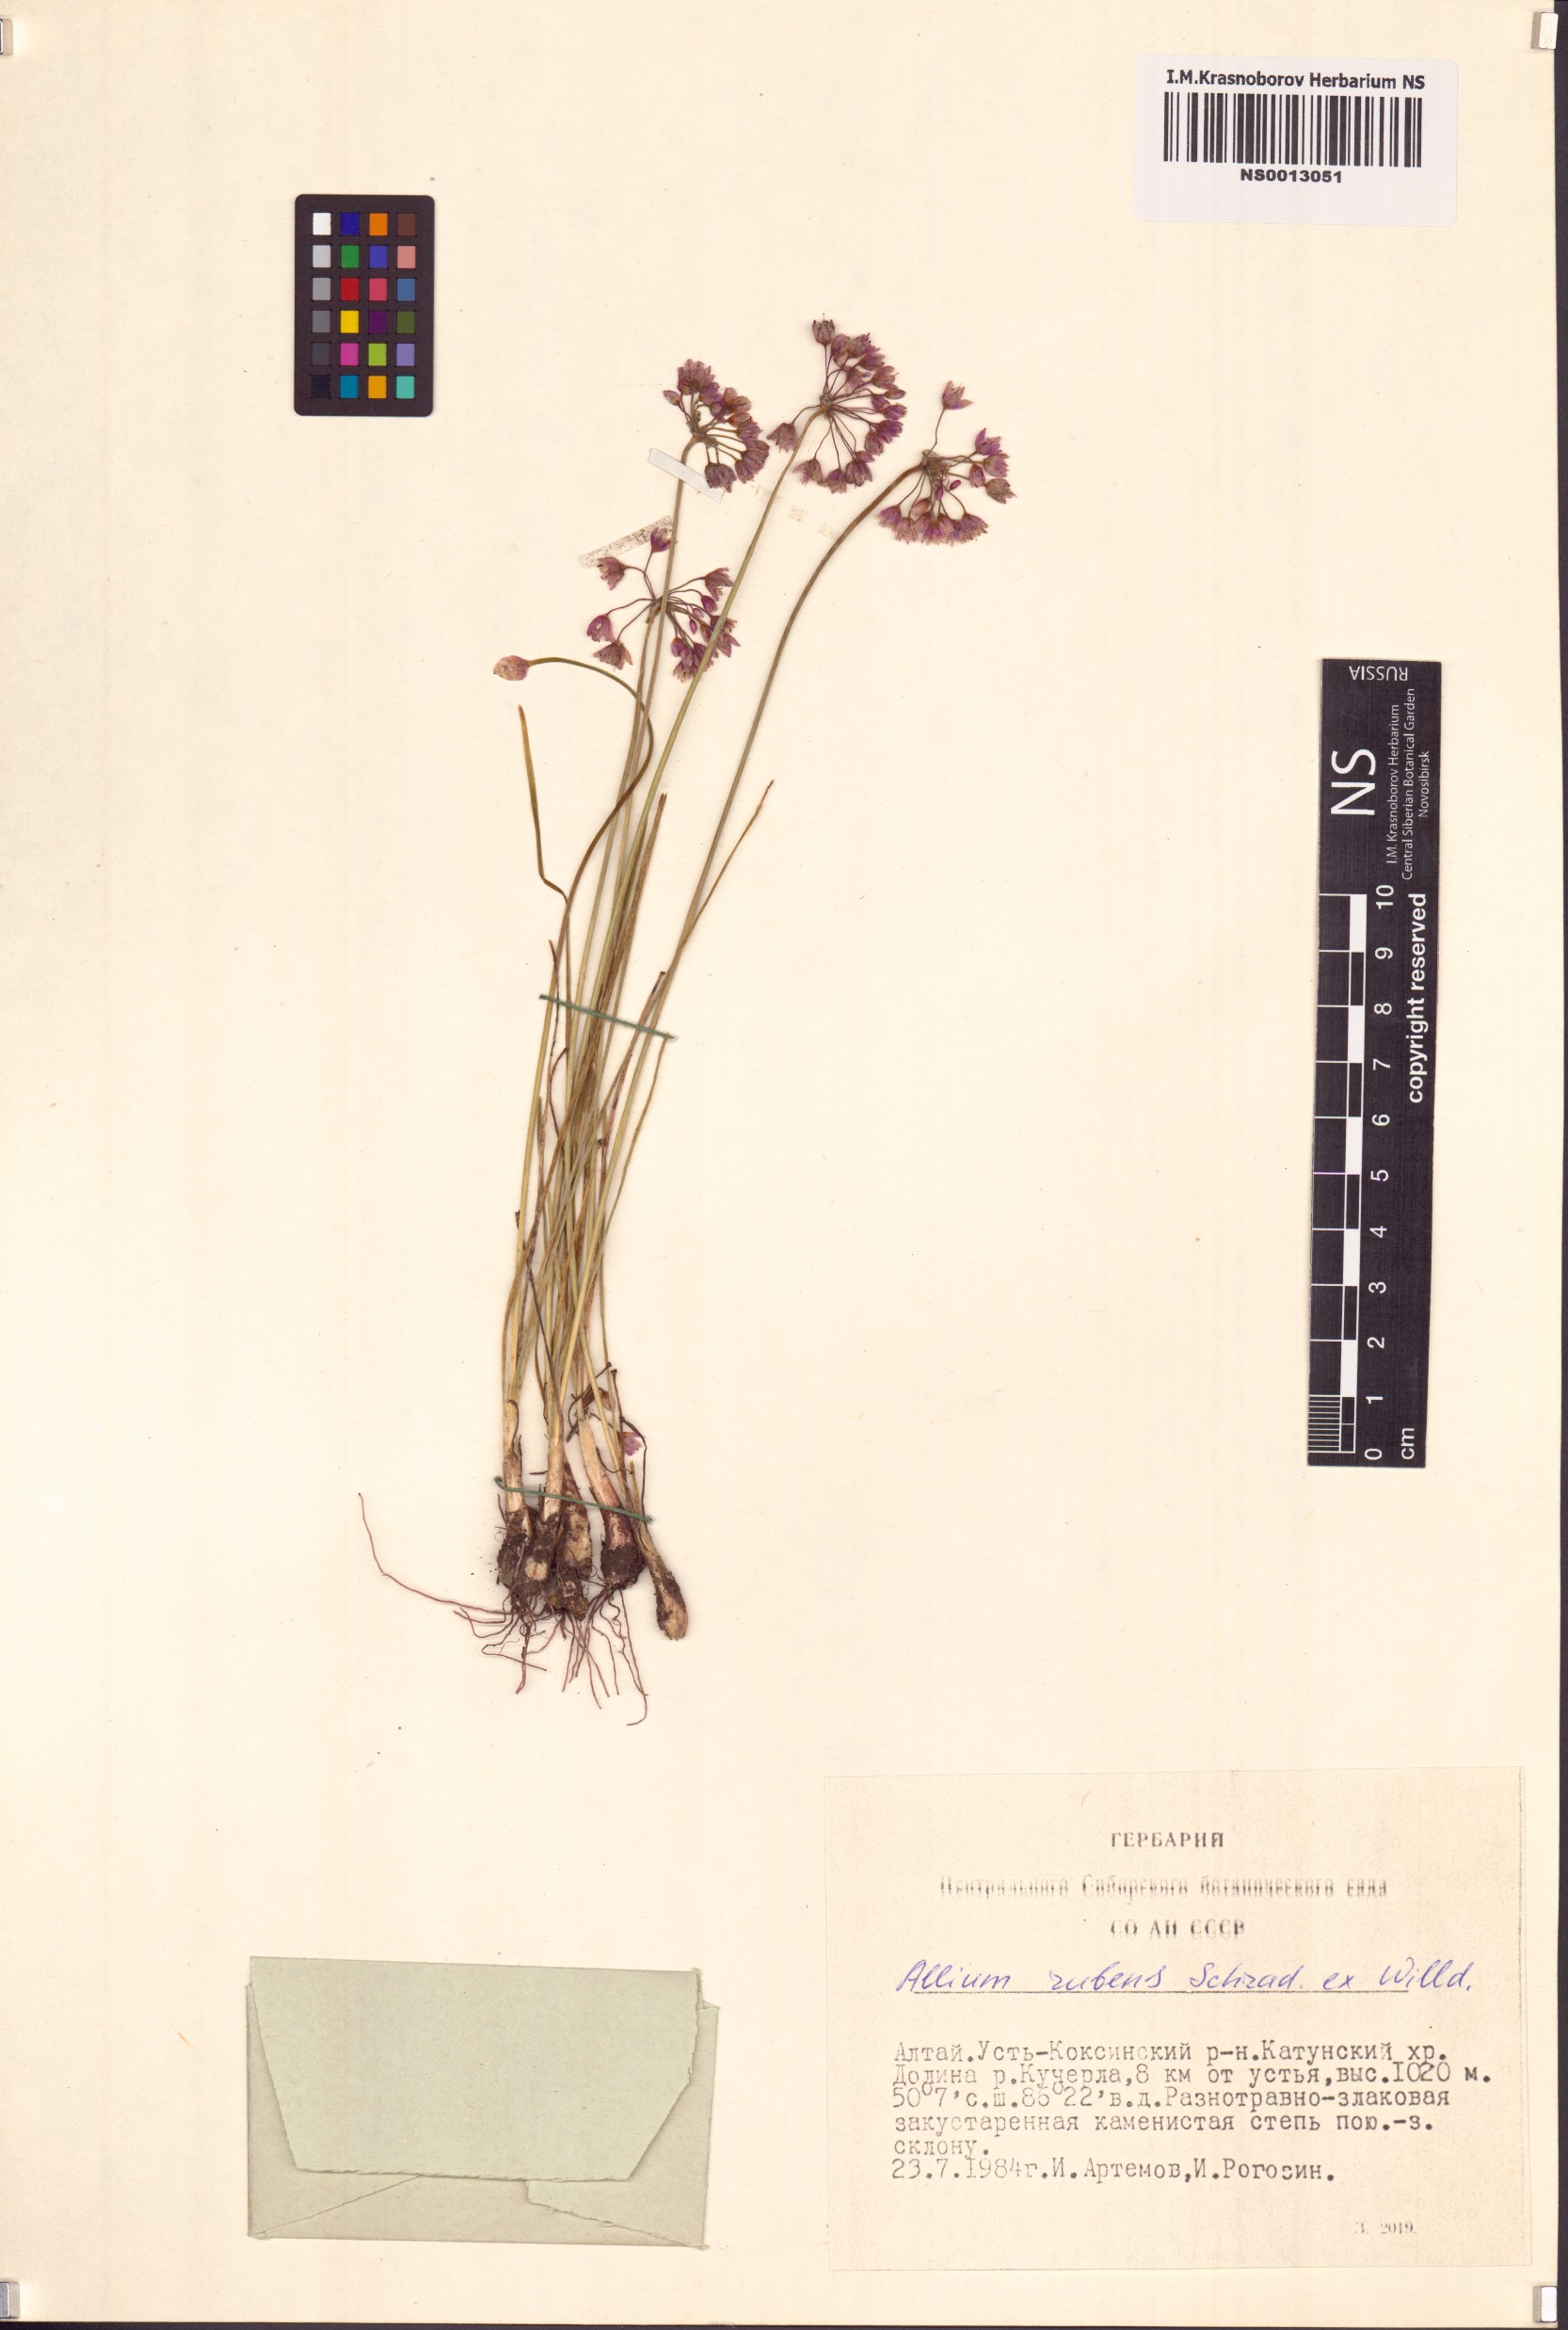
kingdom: Plantae
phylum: Tracheophyta
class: Liliopsida
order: Asparagales
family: Amaryllidaceae
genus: Allium
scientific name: Allium rubens
